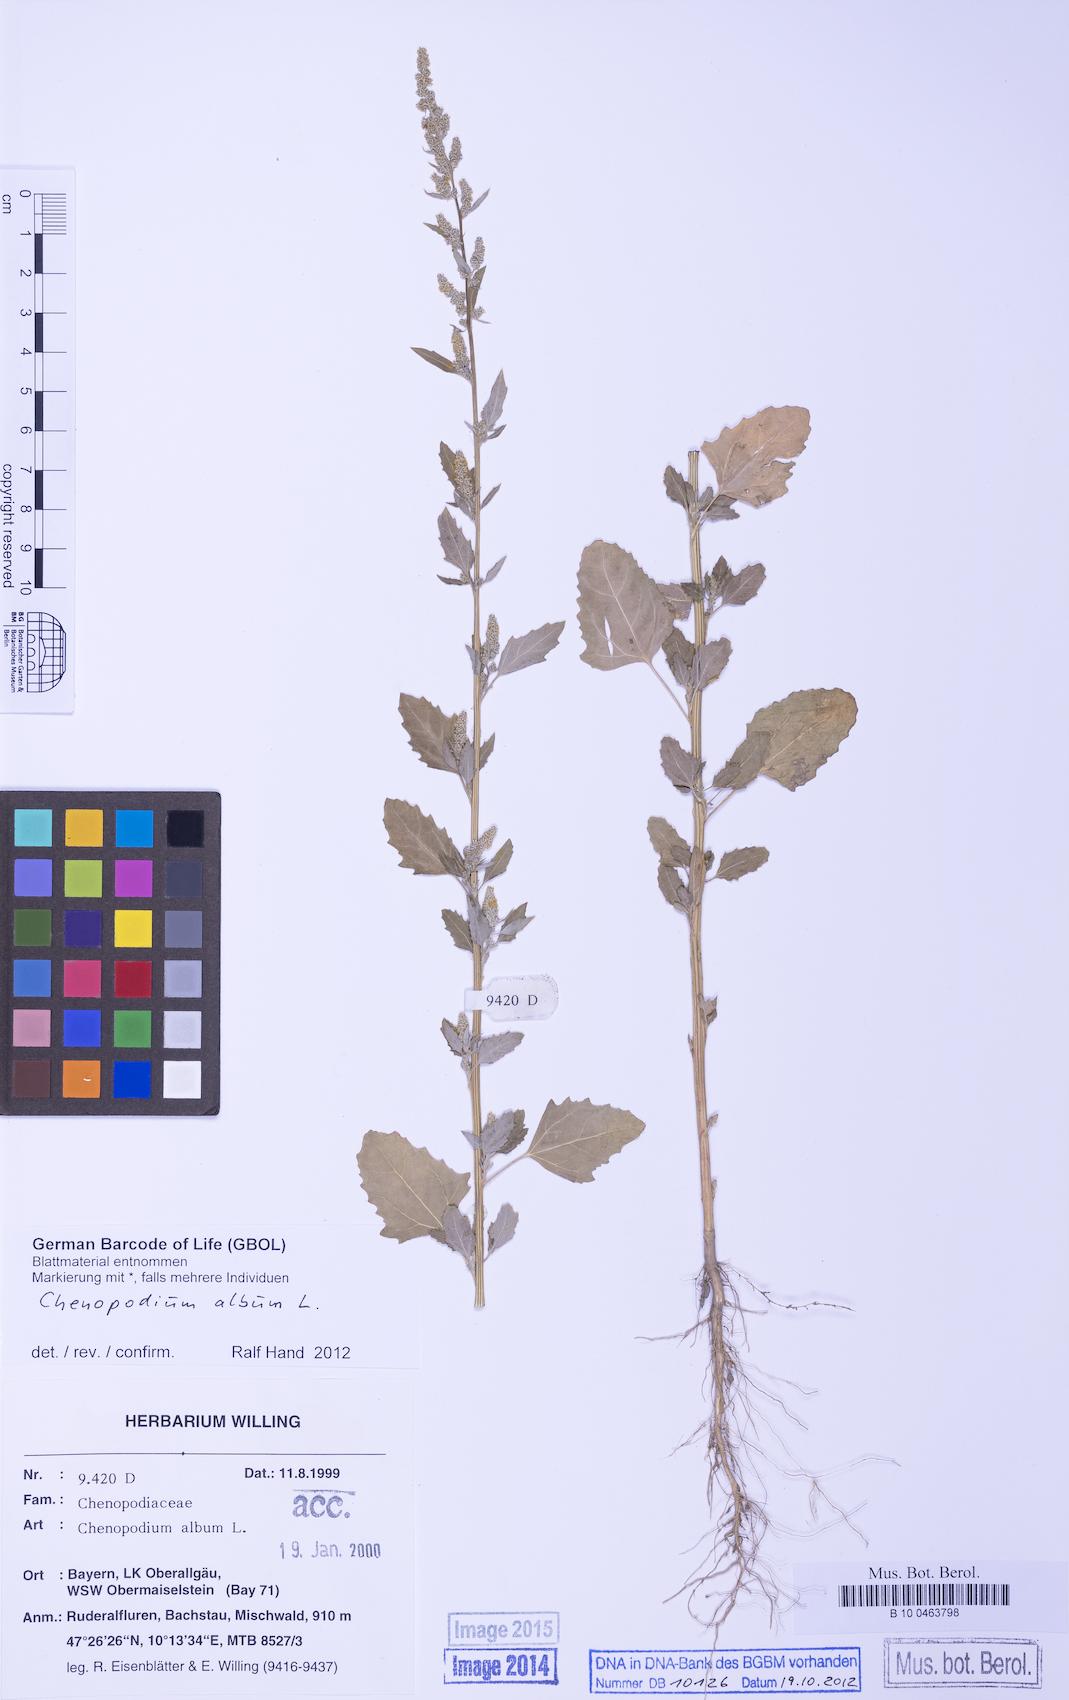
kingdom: Plantae
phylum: Tracheophyta
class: Magnoliopsida
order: Caryophyllales
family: Amaranthaceae
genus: Chenopodium
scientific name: Chenopodium album
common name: Fat-hen
